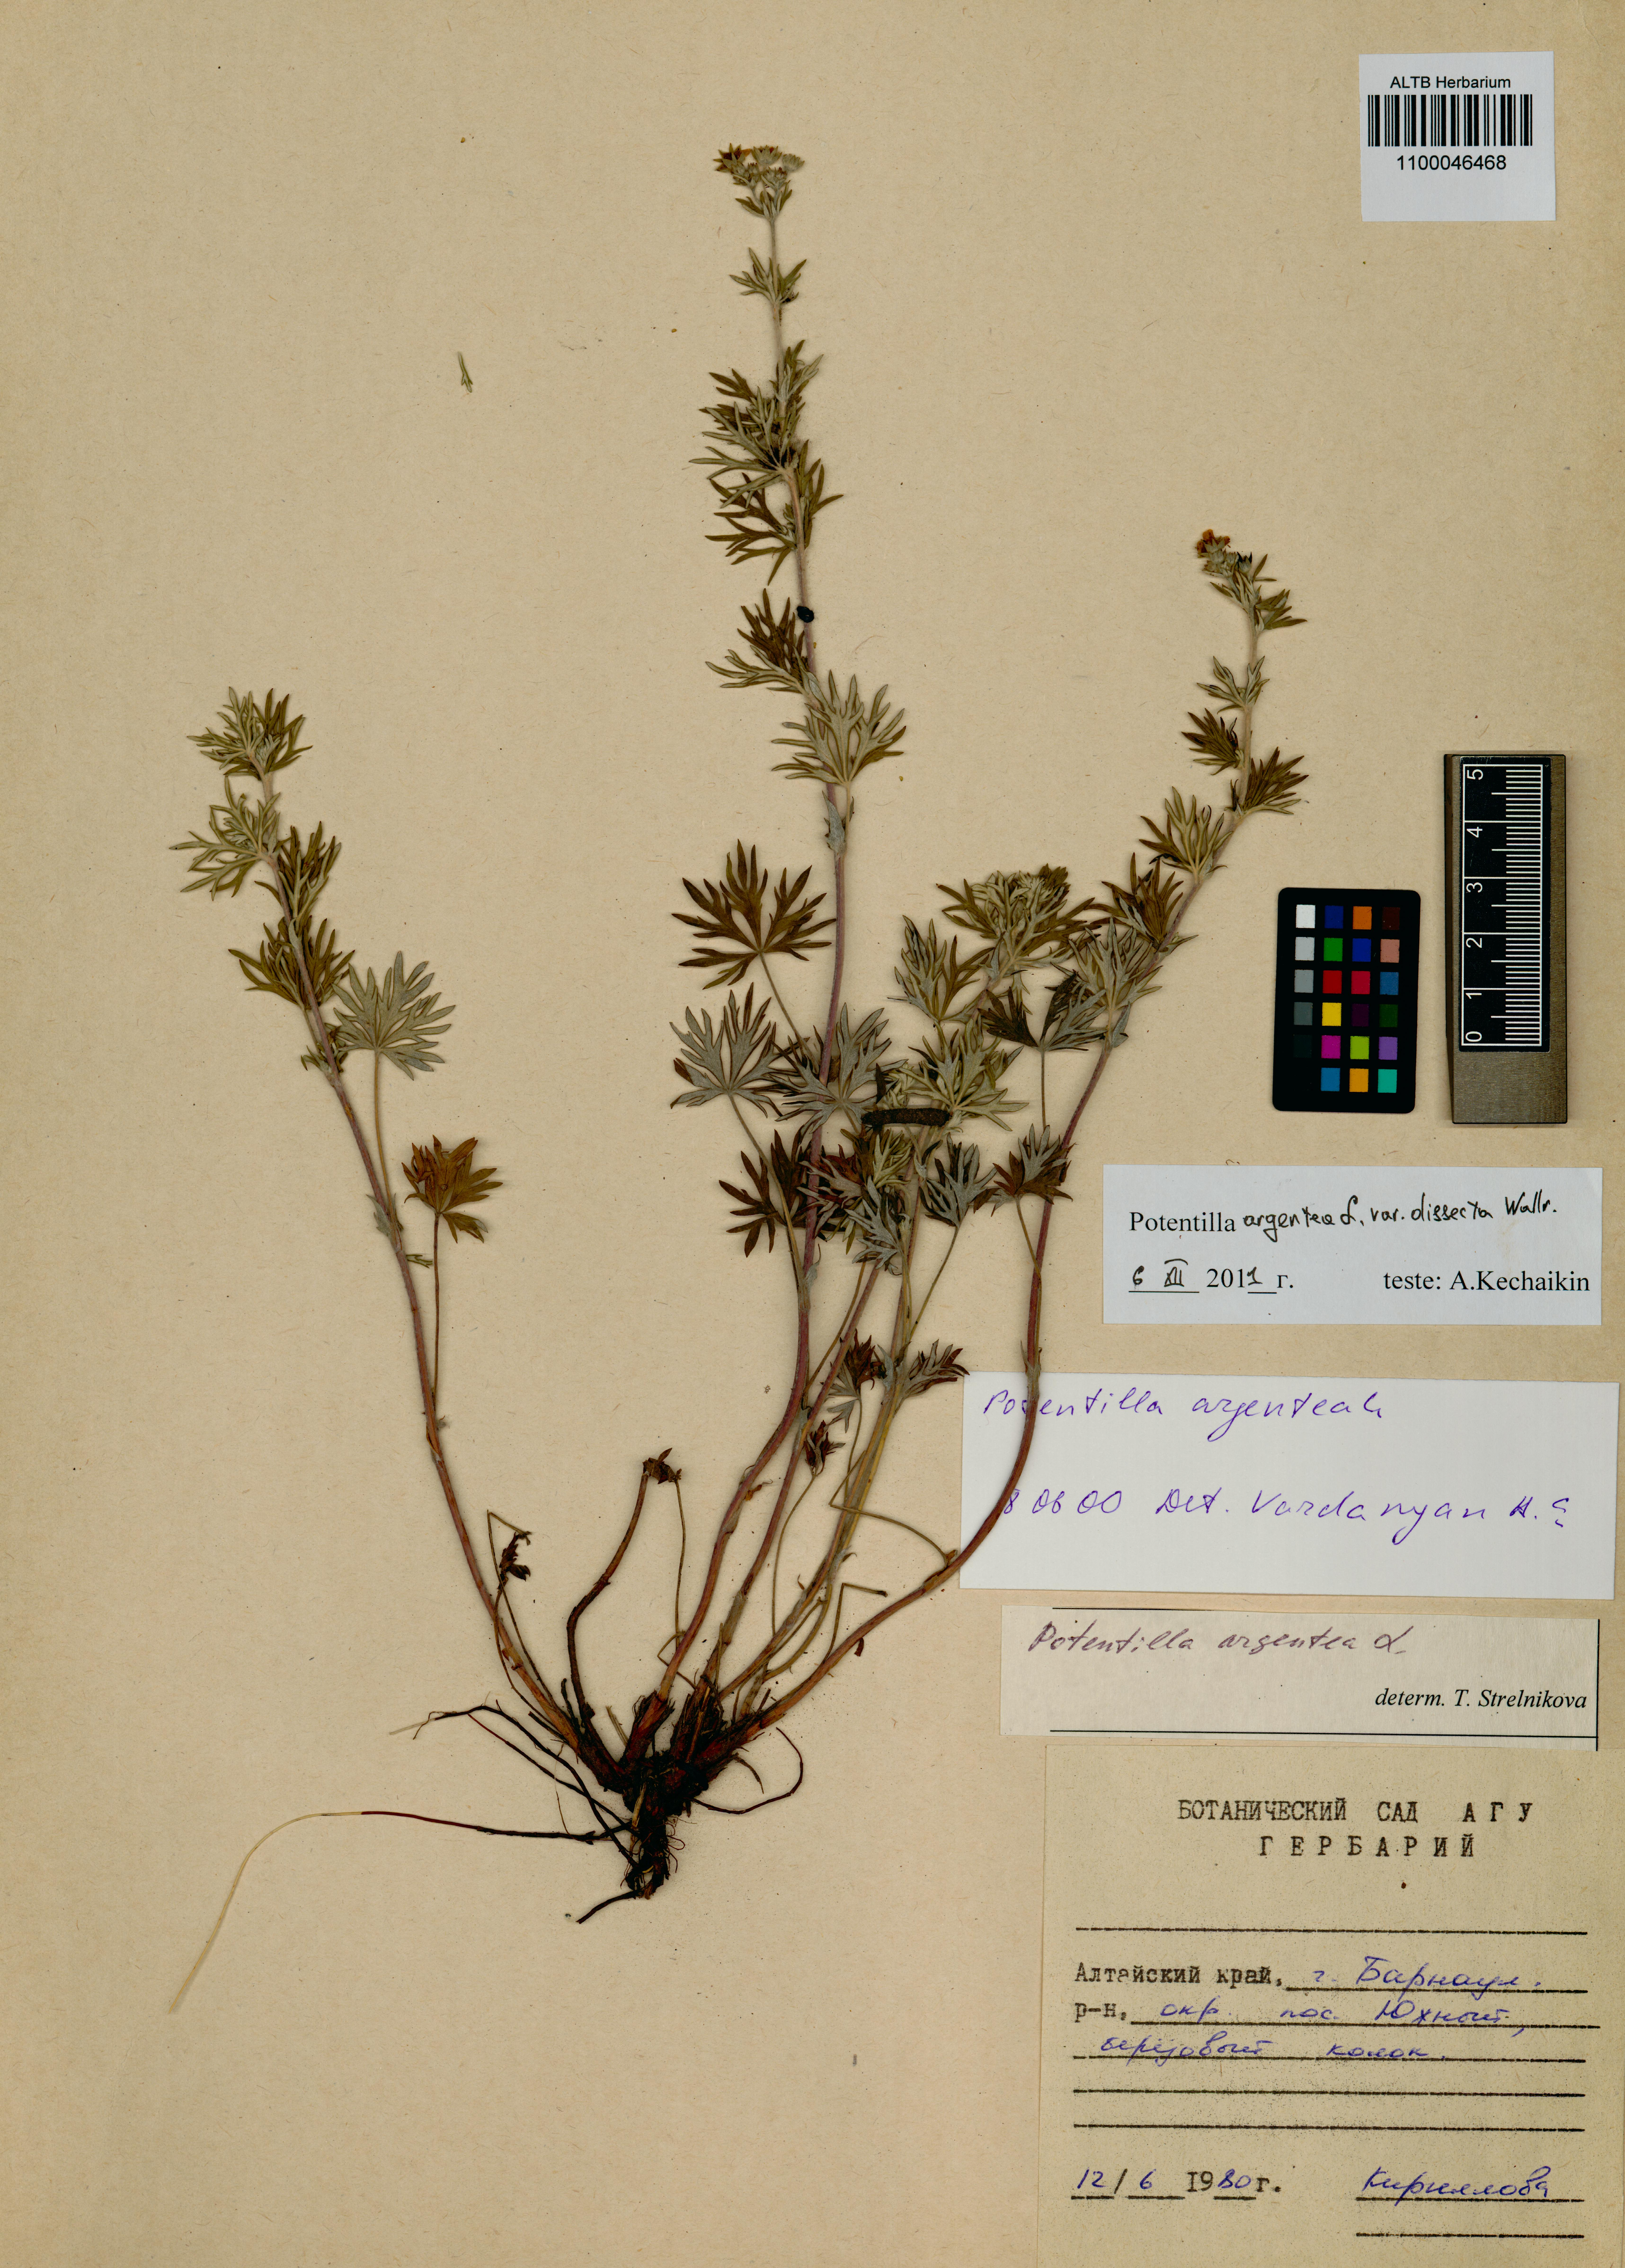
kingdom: Plantae
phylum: Tracheophyta
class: Magnoliopsida
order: Rosales
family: Rosaceae
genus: Potentilla
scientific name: Potentilla argentea
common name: Hoary cinquefoil
